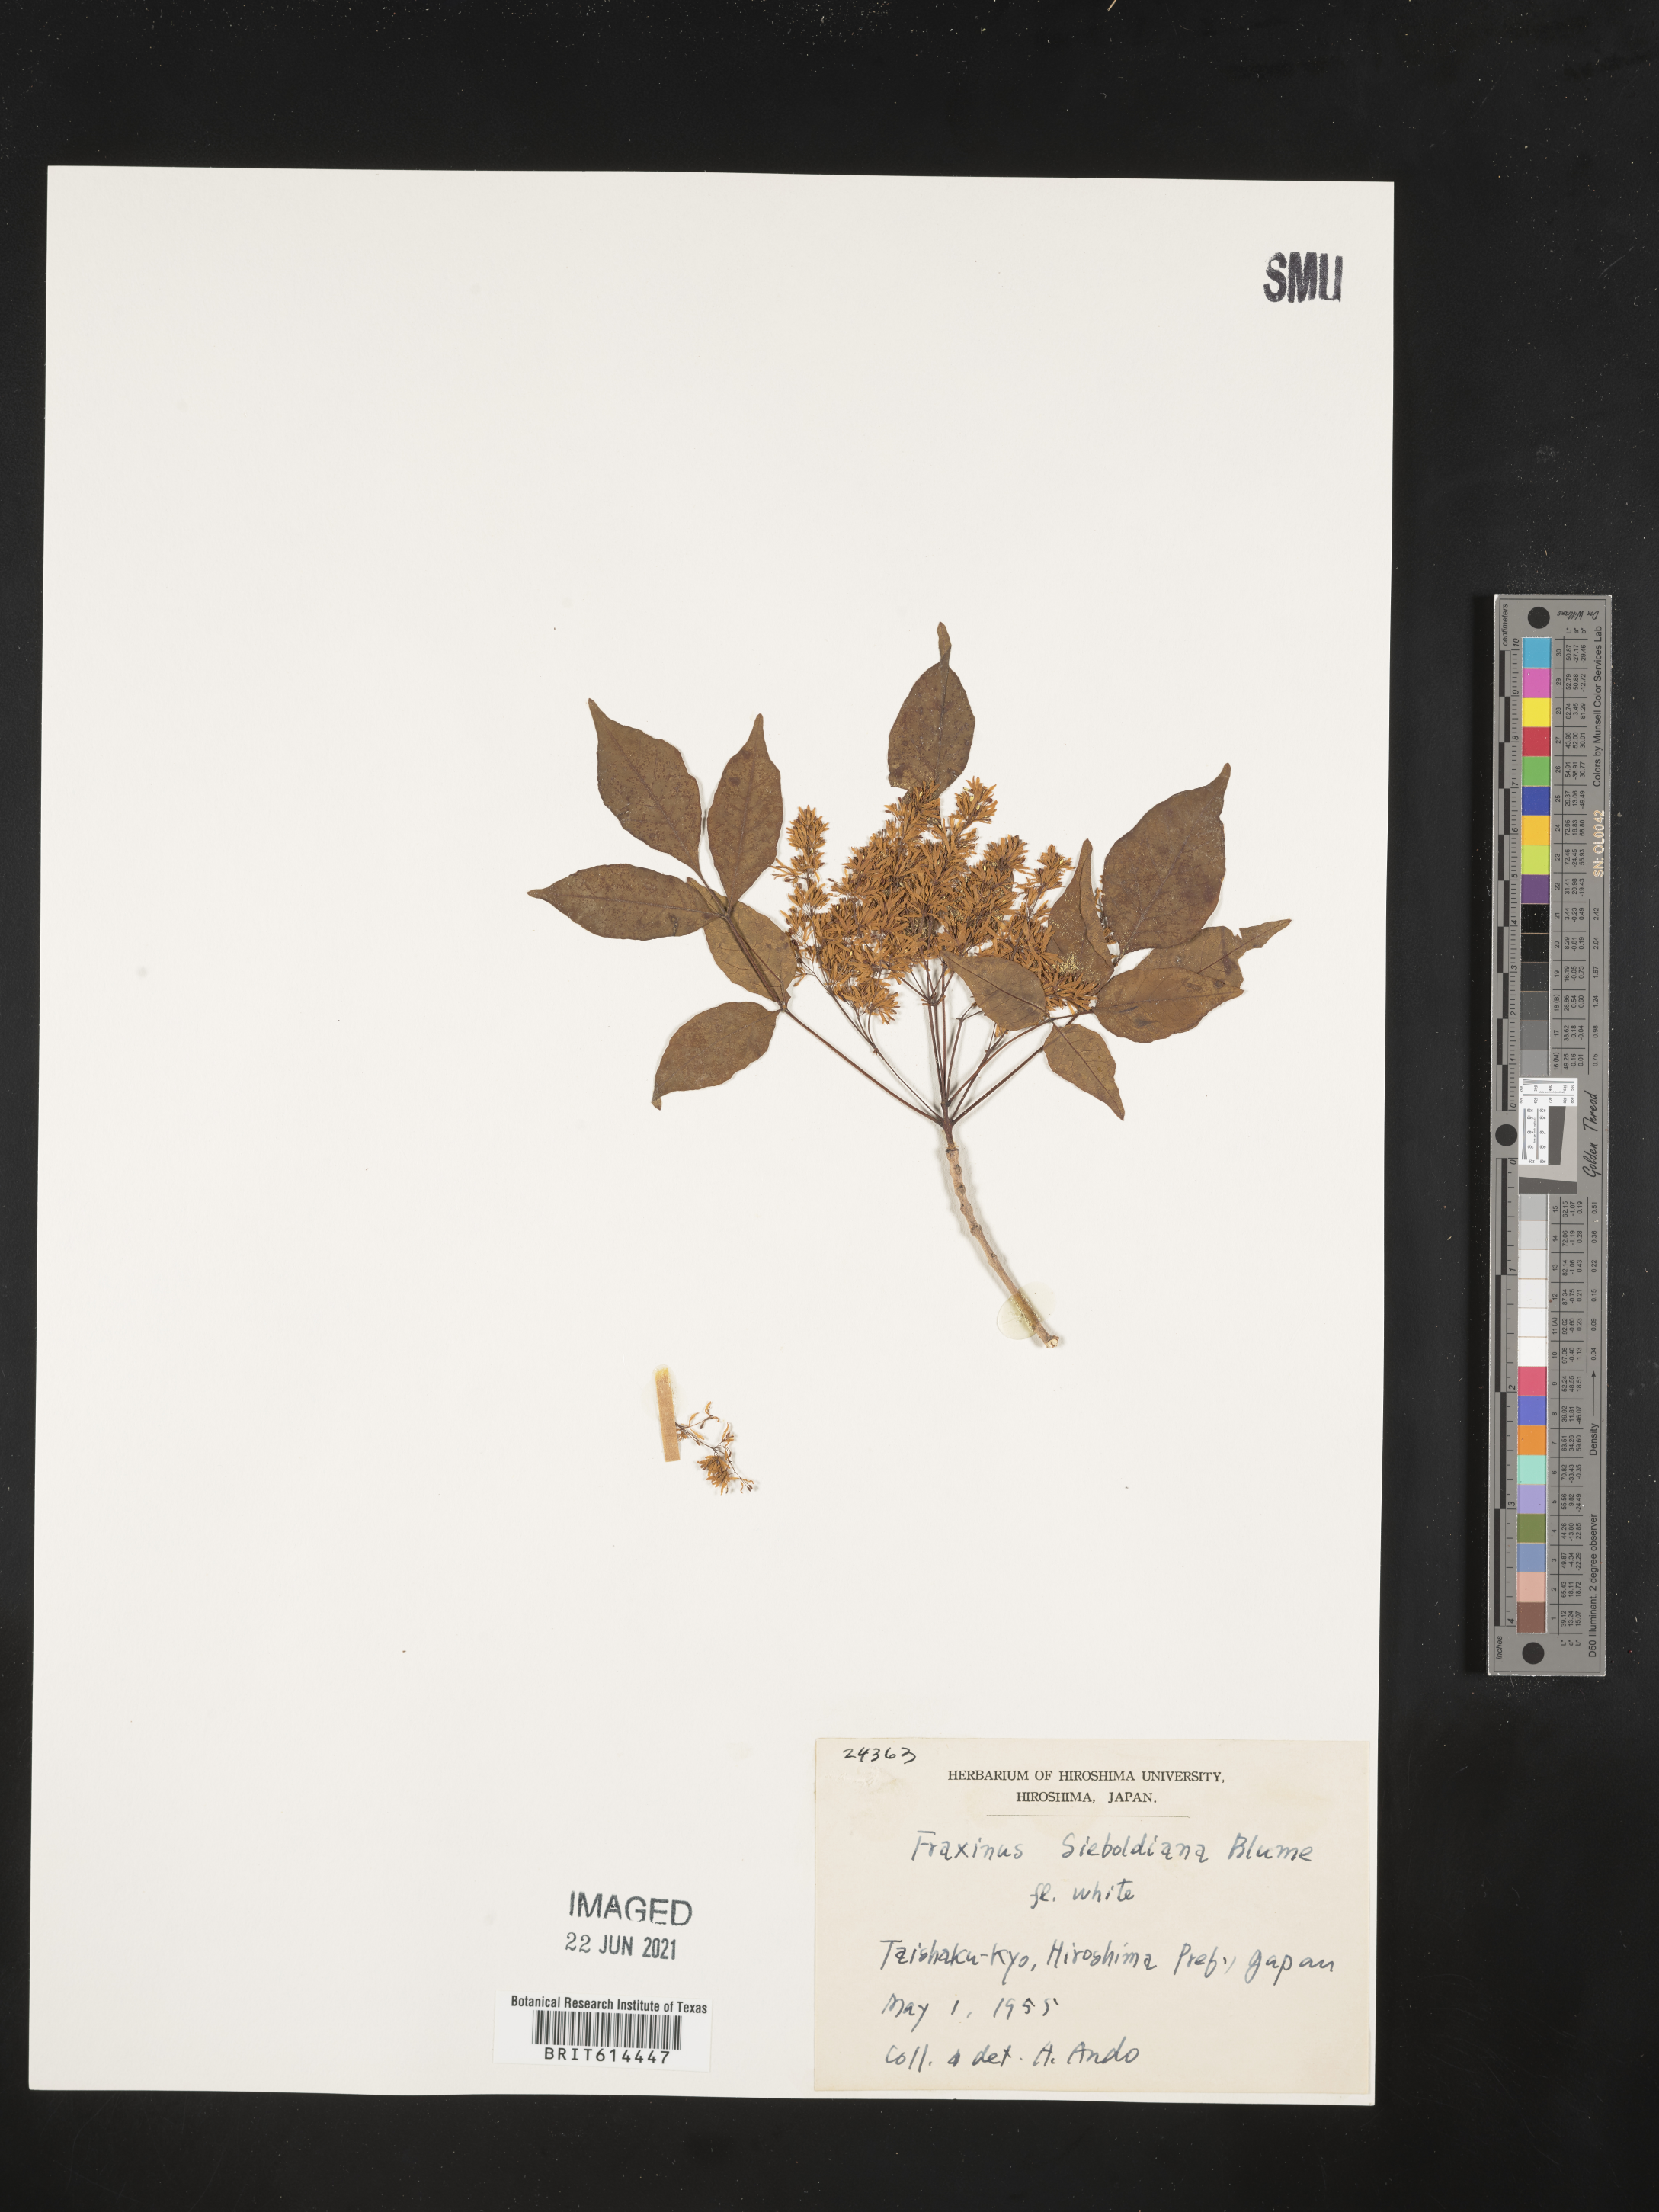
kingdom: Plantae
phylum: Tracheophyta
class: Magnoliopsida
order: Lamiales
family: Oleaceae
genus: Fraxinus
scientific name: Fraxinus sieboldiana
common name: Chinese flowering ash
